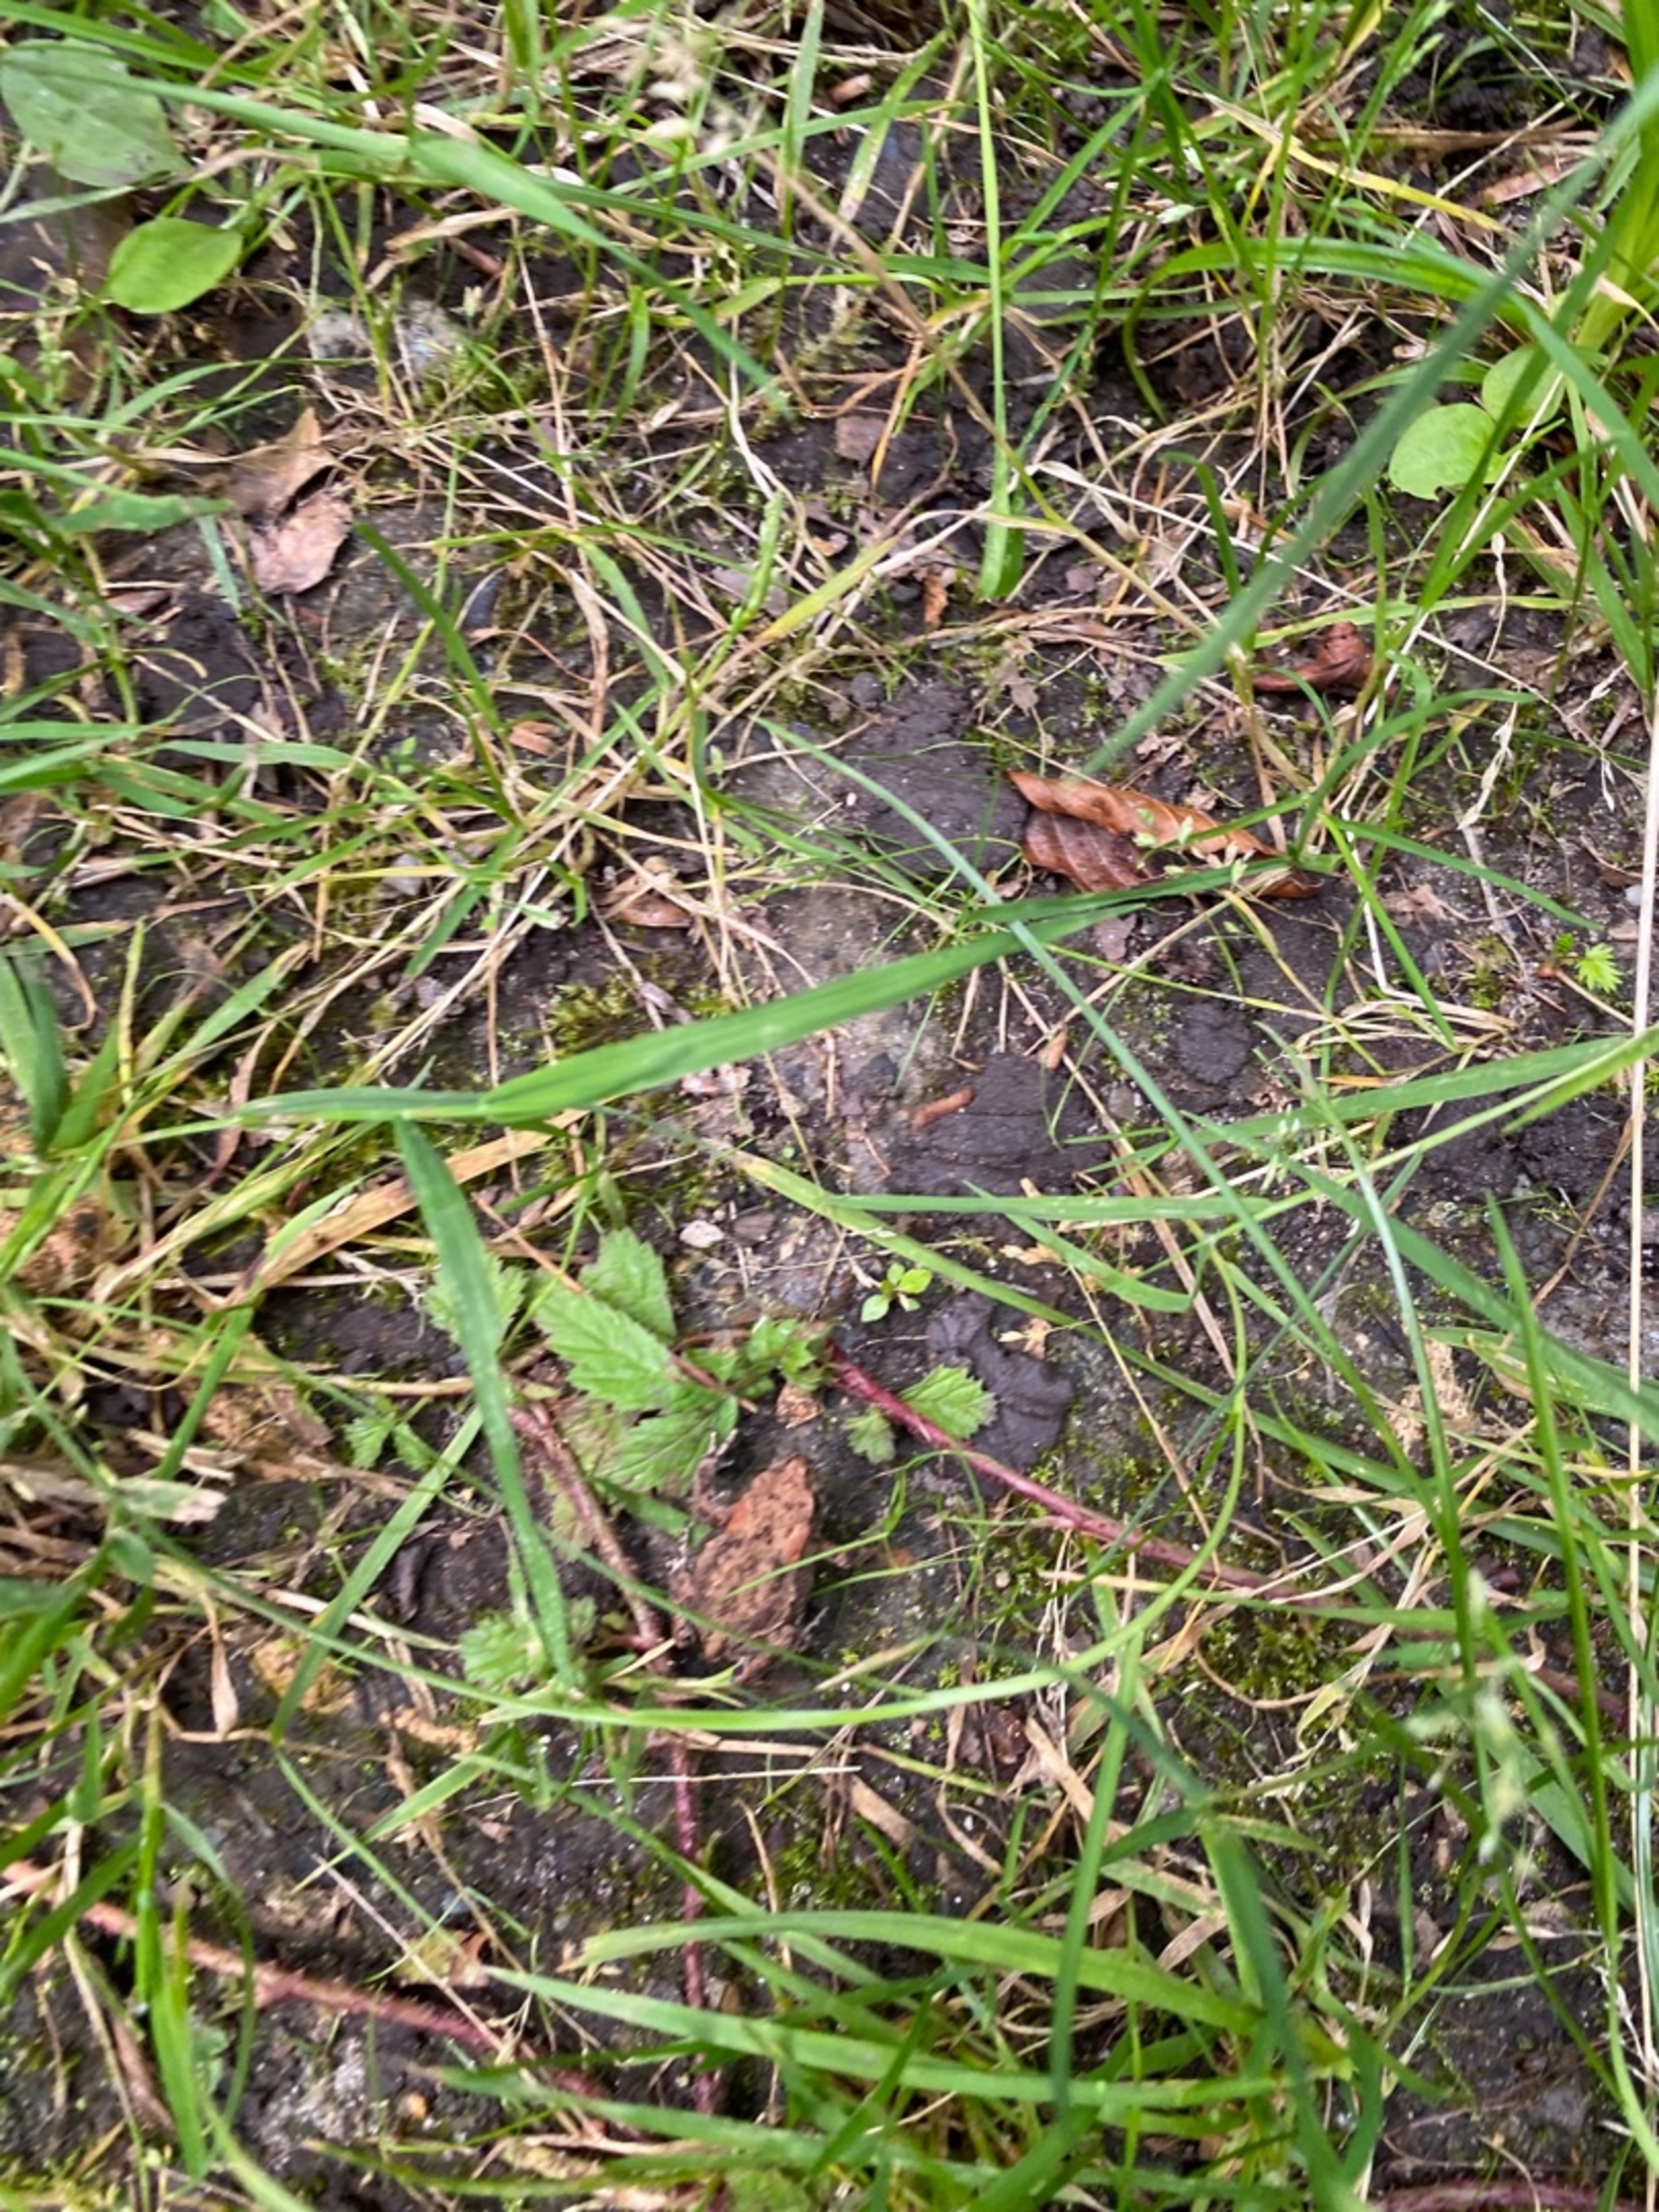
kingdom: Animalia
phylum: Chordata
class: Amphibia
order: Anura
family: Bufonidae
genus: Bufo
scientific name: Bufo bufo
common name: Skrubtudse
